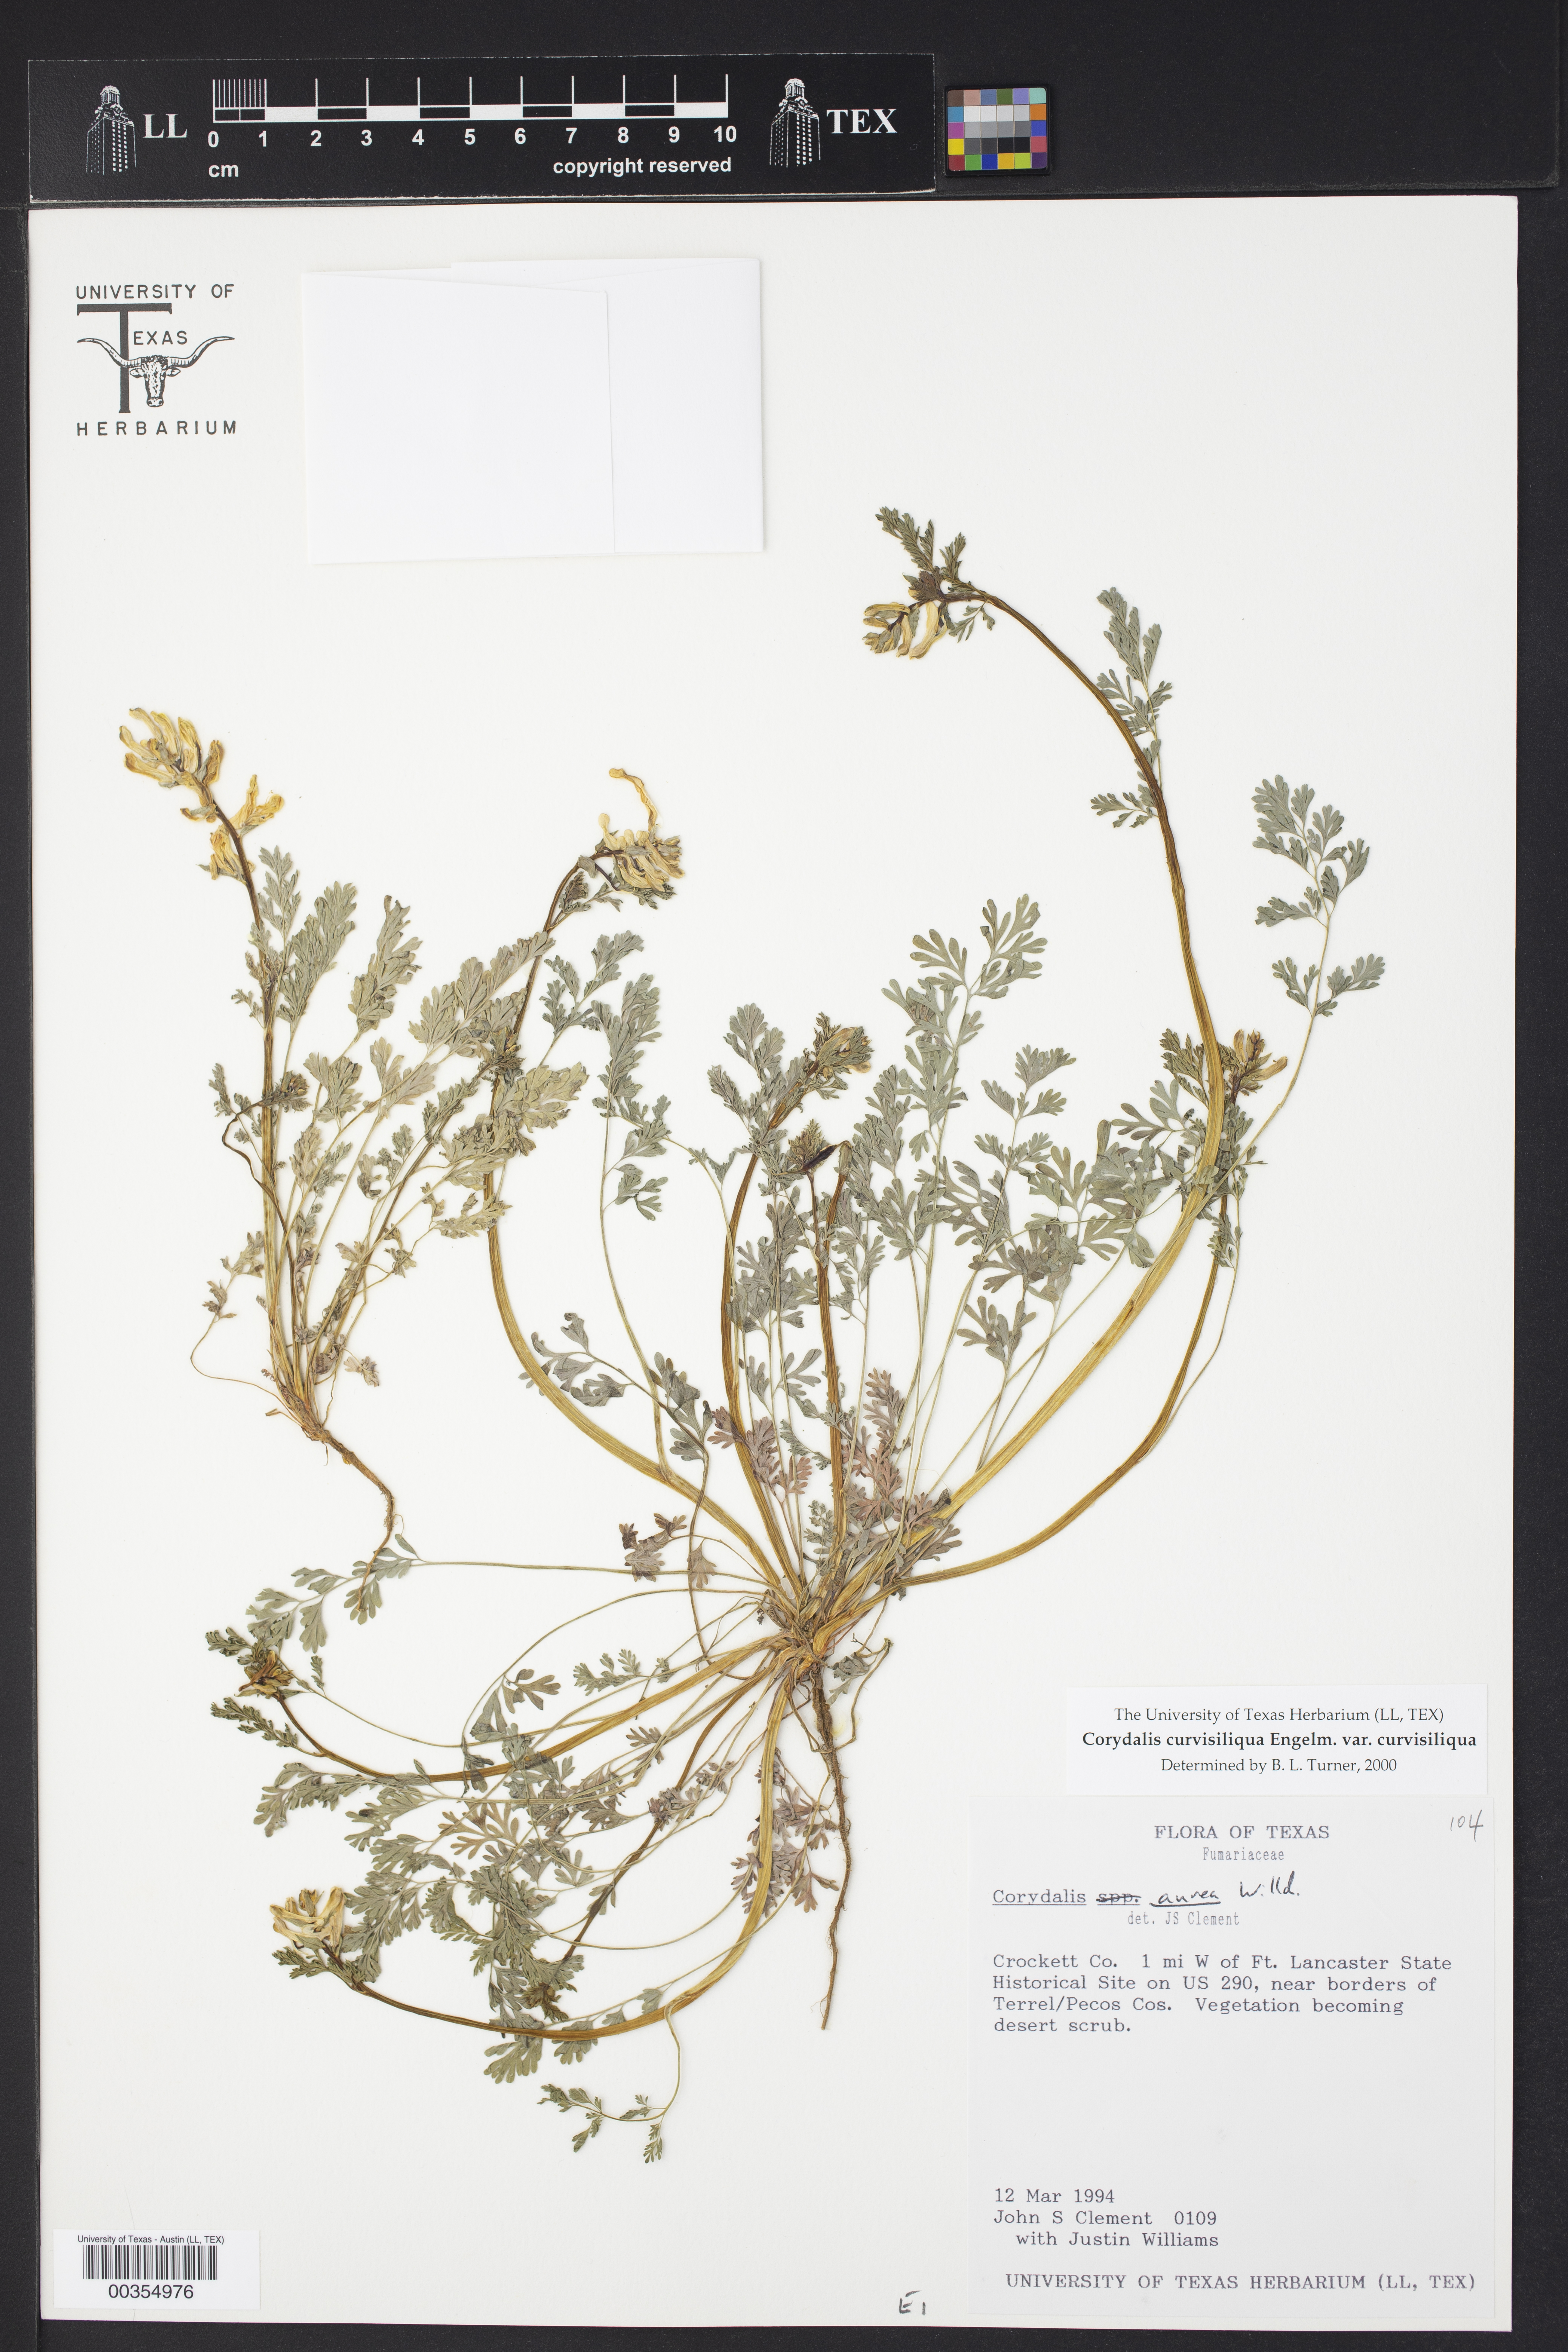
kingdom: Plantae
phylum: Tracheophyta
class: Magnoliopsida
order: Ranunculales
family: Papaveraceae
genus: Corydalis
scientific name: Corydalis curvisiliqua
